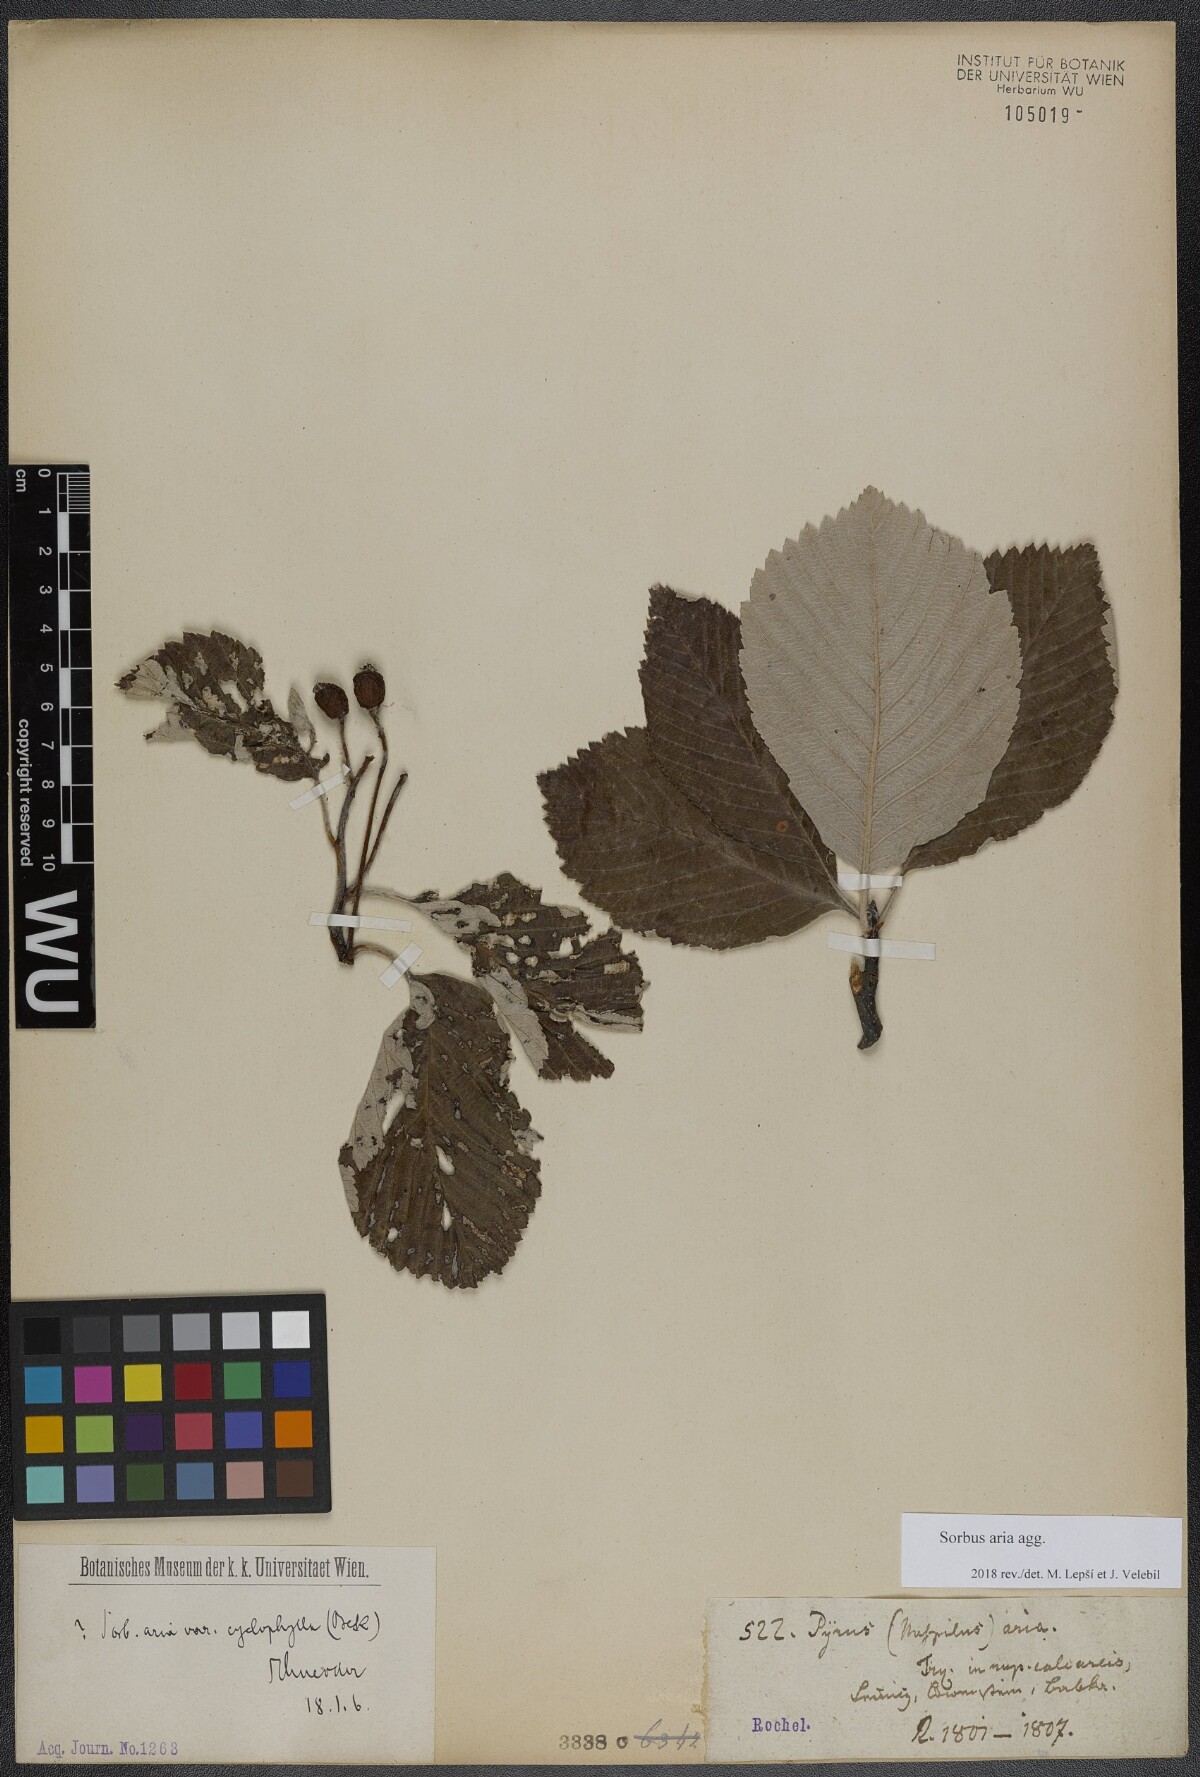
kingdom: Plantae
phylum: Tracheophyta
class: Magnoliopsida
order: Rosales
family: Rosaceae
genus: Aria
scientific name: Aria edulis
